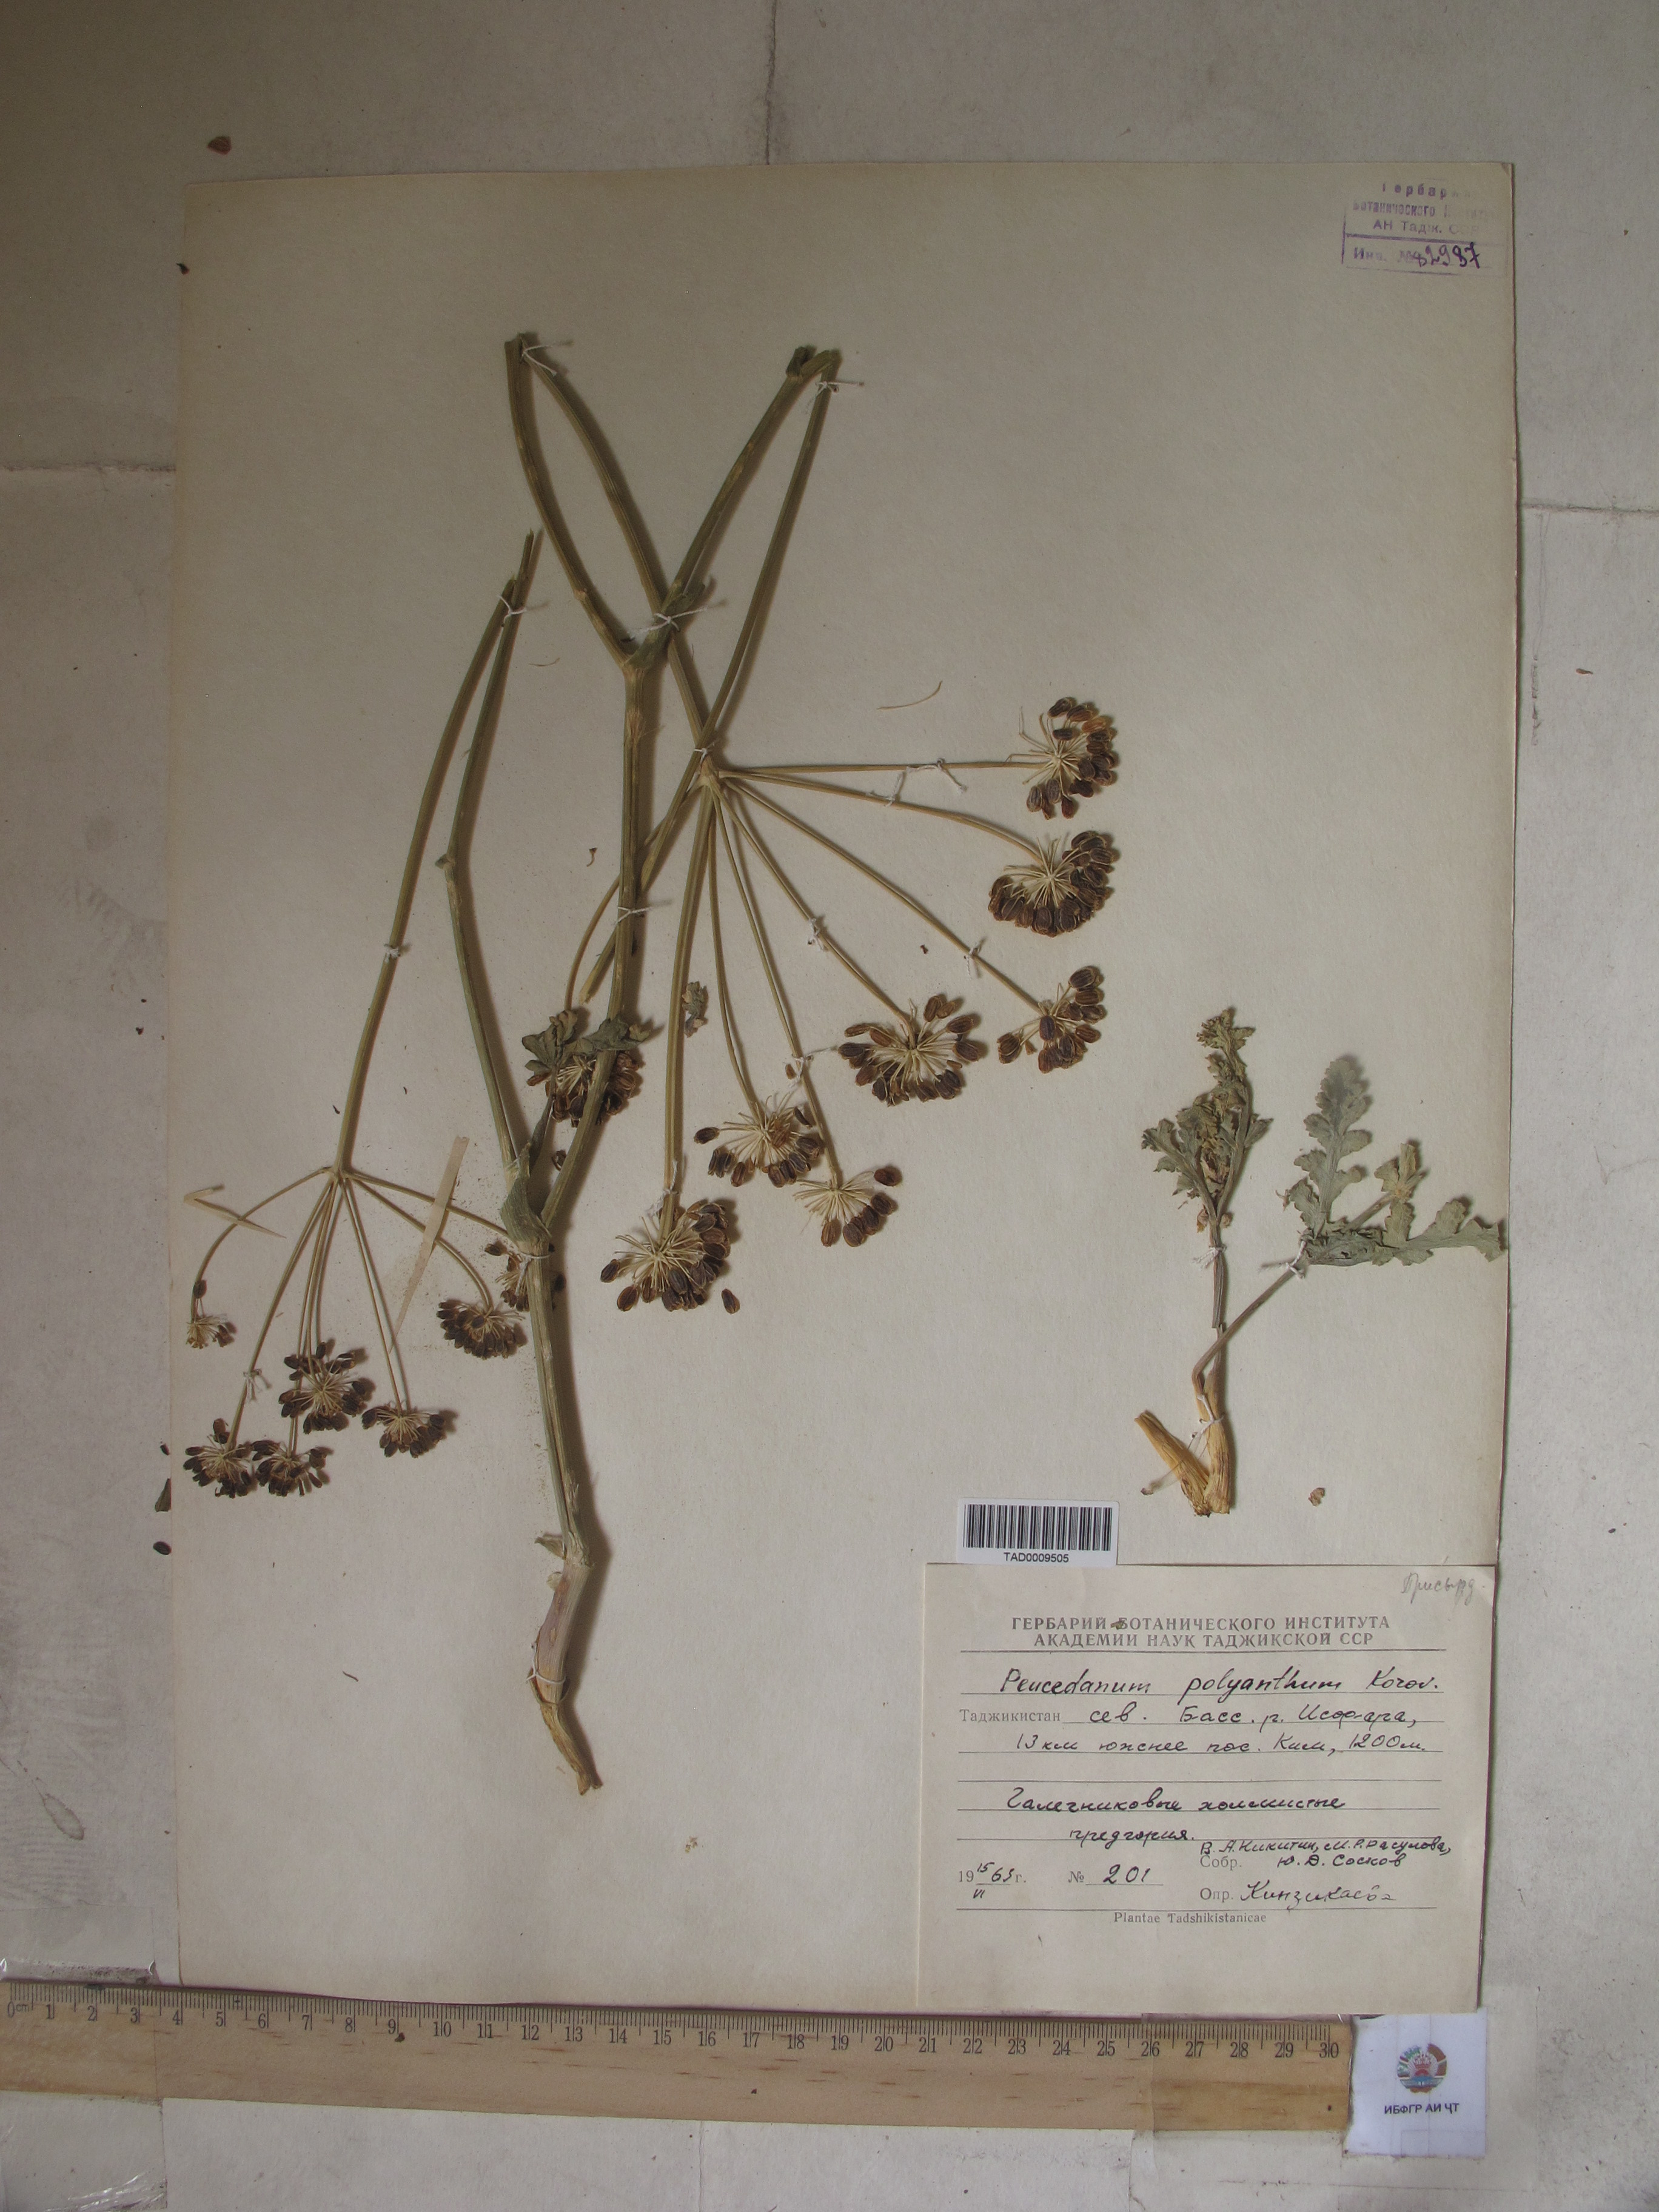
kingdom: Plantae
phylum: Tracheophyta
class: Magnoliopsida
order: Apiales
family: Apiaceae
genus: Fergania
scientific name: Fergania polyantha
